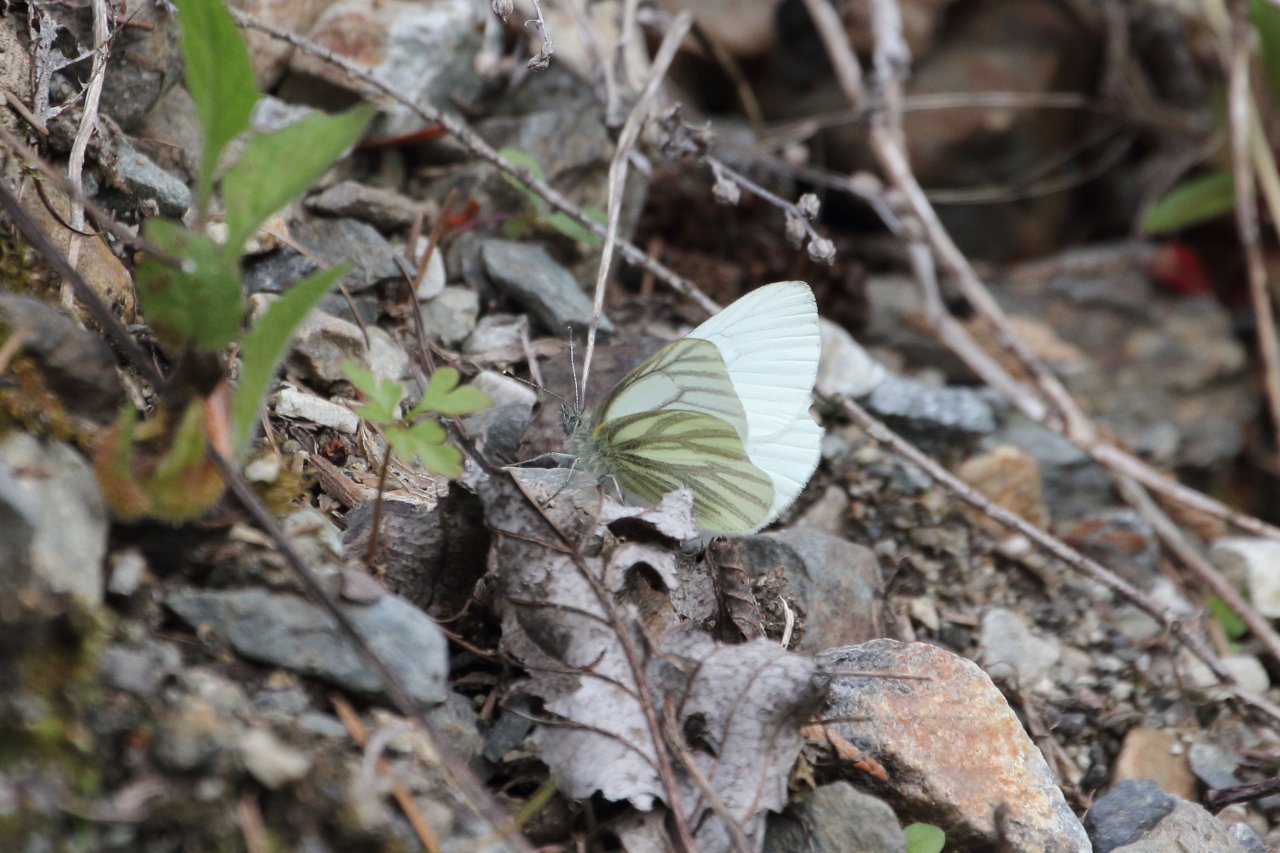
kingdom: Animalia
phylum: Arthropoda
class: Insecta
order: Lepidoptera
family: Pieridae
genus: Pieris
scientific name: Pieris marginalis
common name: Margined White
